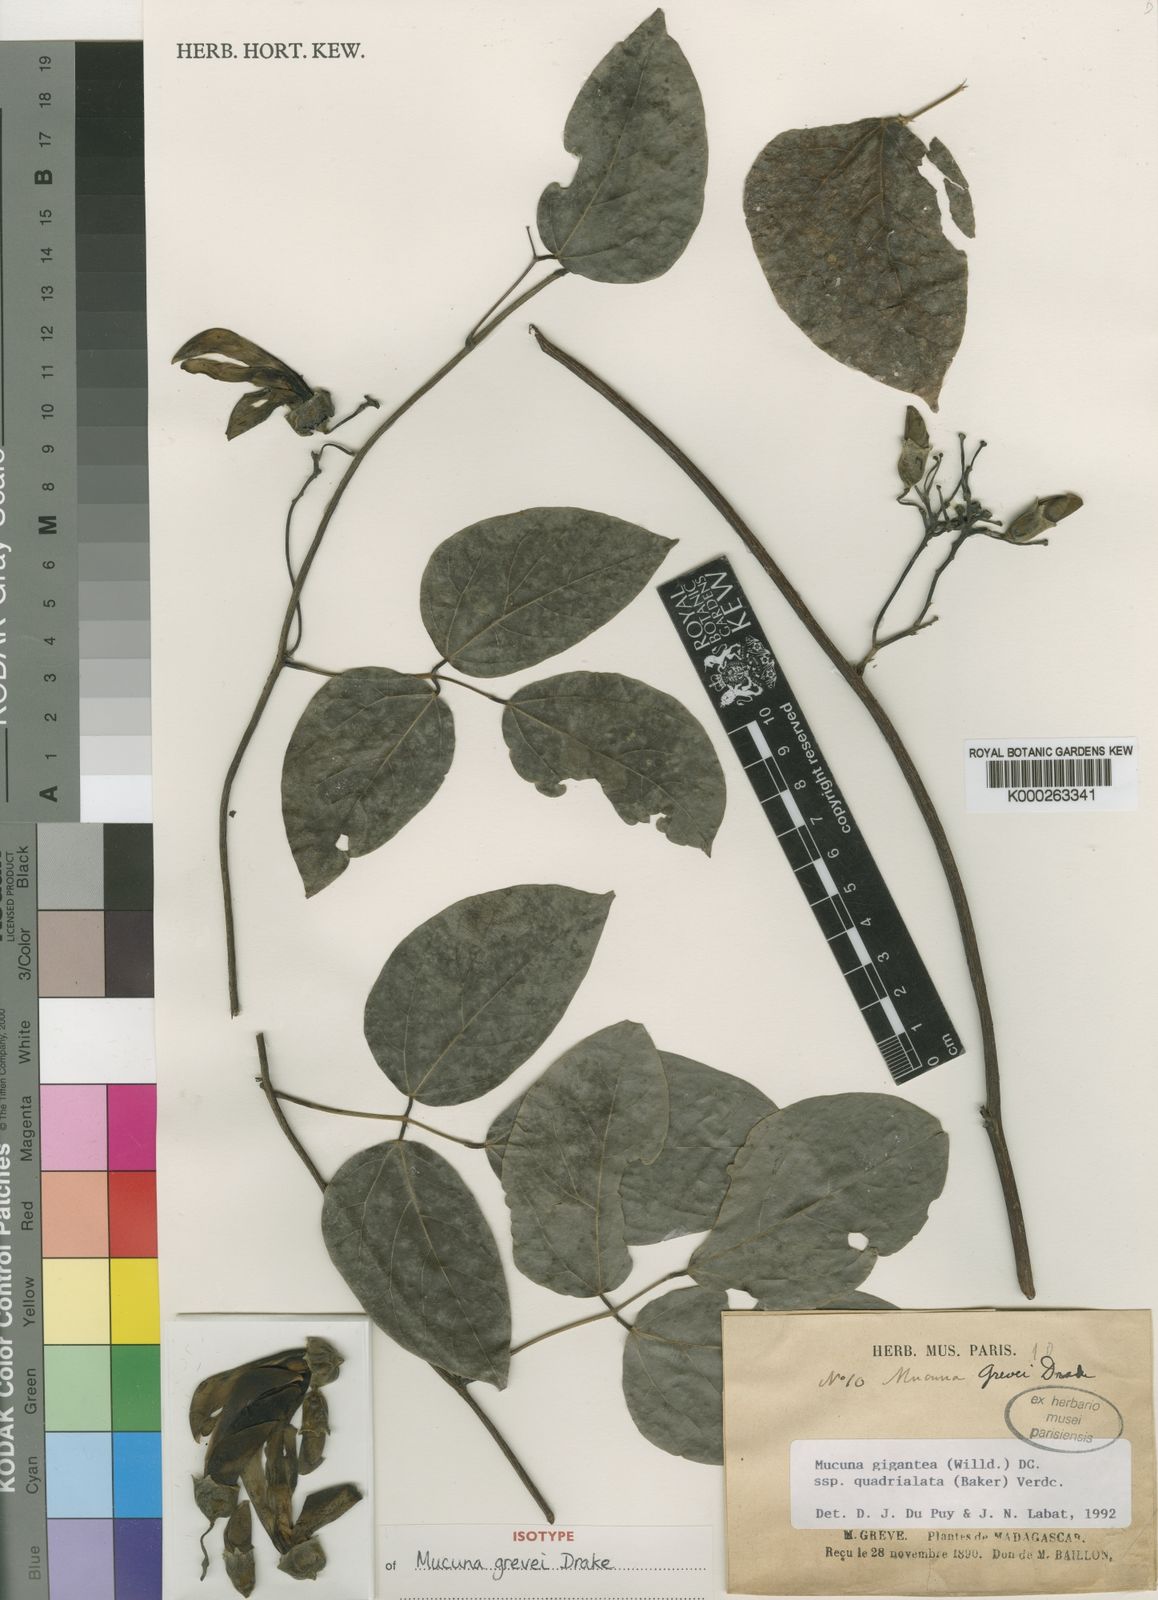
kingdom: Plantae
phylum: Tracheophyta
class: Magnoliopsida
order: Fabales
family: Fabaceae
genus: Mucuna
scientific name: Mucuna gigantea
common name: Black-bean
